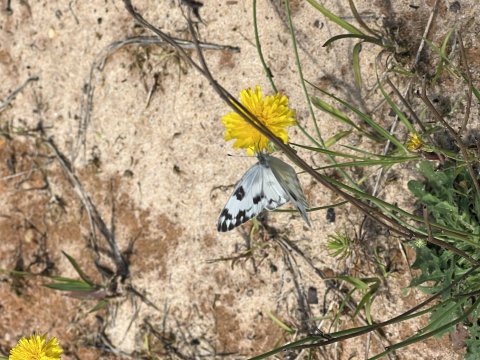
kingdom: Animalia
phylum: Arthropoda
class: Insecta
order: Lepidoptera
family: Pieridae
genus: Pontia
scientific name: Pontia protodice
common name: Checkered White
